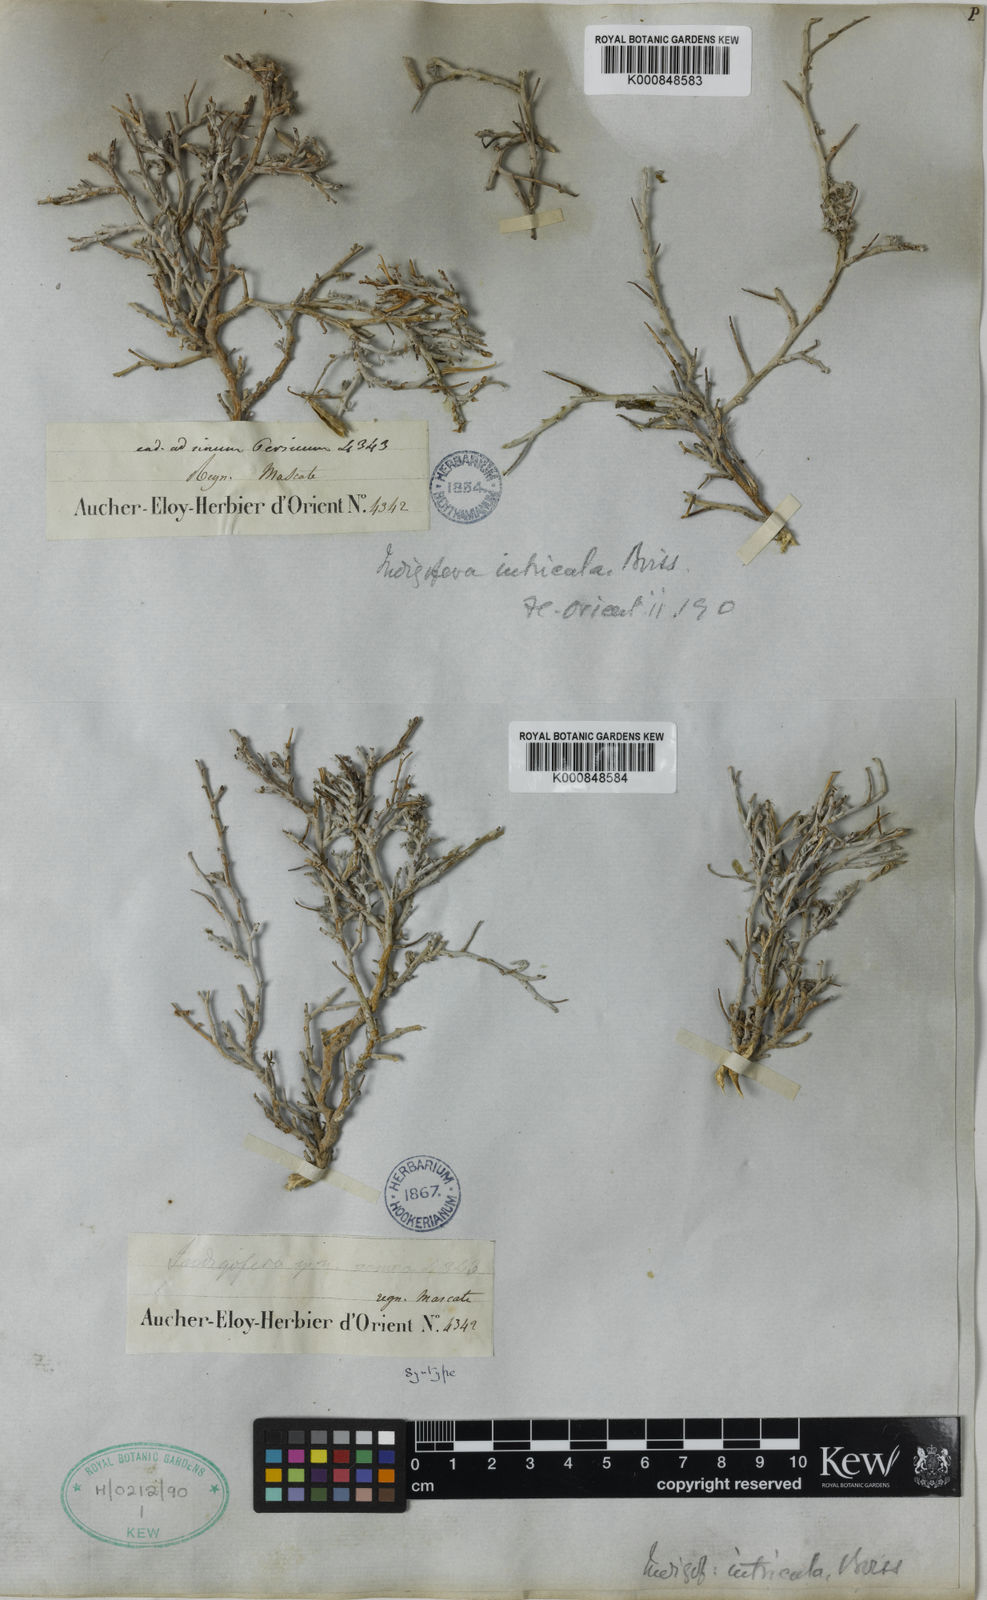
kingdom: Plantae
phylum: Tracheophyta
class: Magnoliopsida
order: Fabales
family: Fabaceae
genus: Indigofera
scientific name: Indigofera intricata
